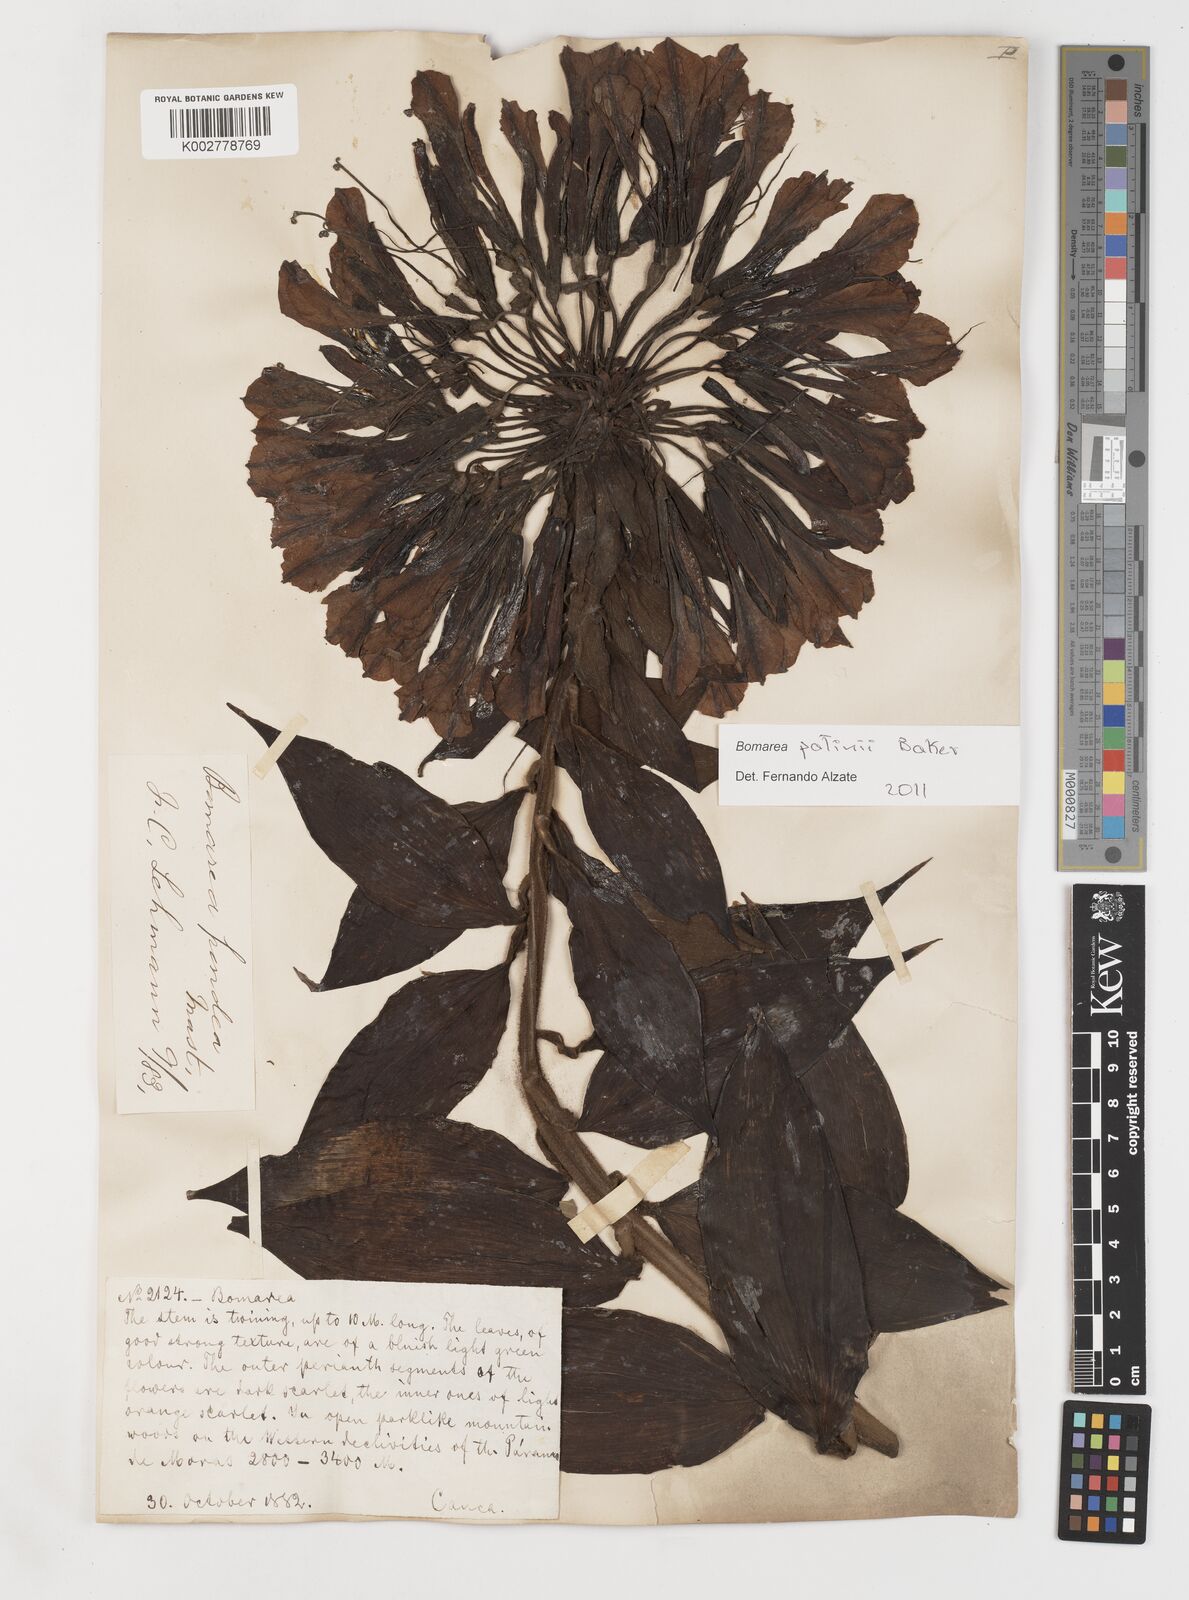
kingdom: Plantae
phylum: Tracheophyta
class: Liliopsida
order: Liliales
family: Alstroemeriaceae
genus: Bomarea
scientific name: Bomarea patinii
